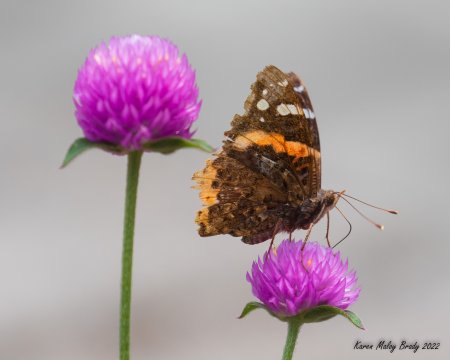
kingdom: Animalia
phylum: Arthropoda
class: Insecta
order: Lepidoptera
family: Nymphalidae
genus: Vanessa
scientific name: Vanessa atalanta
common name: Red Admiral
